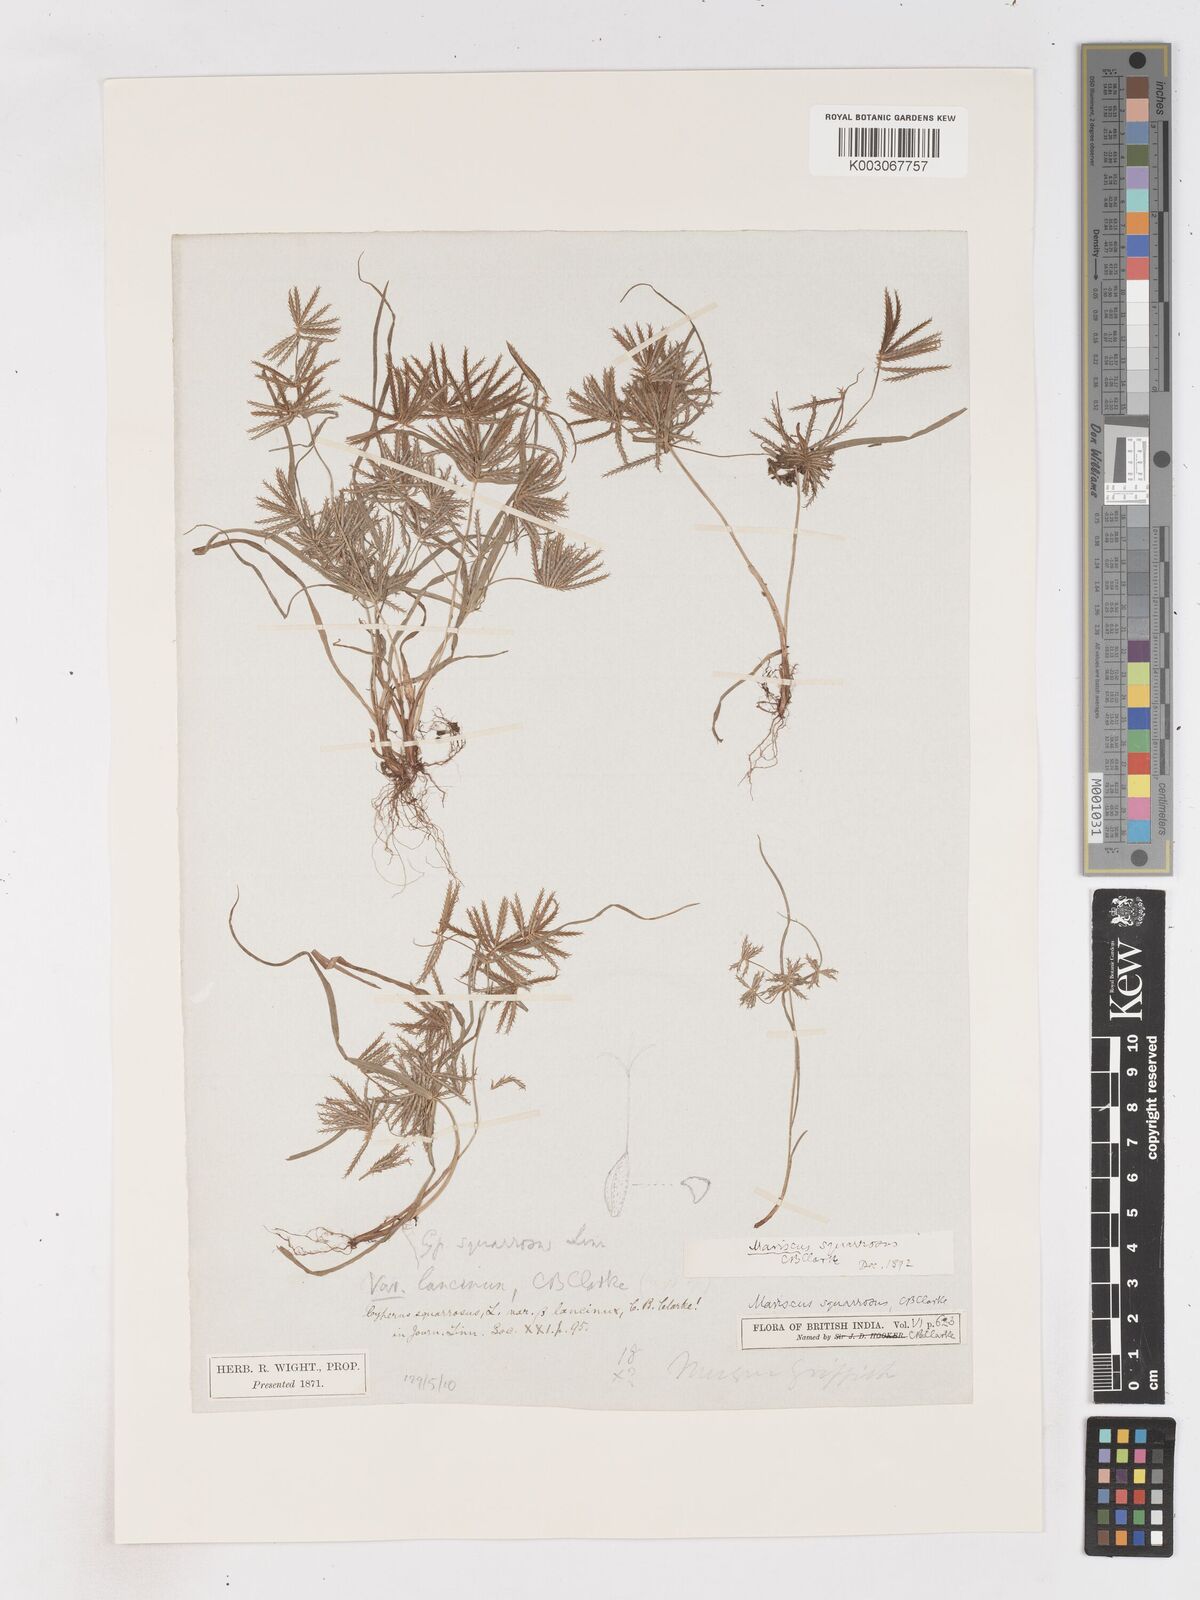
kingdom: Plantae
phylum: Tracheophyta
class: Liliopsida
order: Poales
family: Cyperaceae
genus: Cyperus
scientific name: Cyperus maderaspatanus
